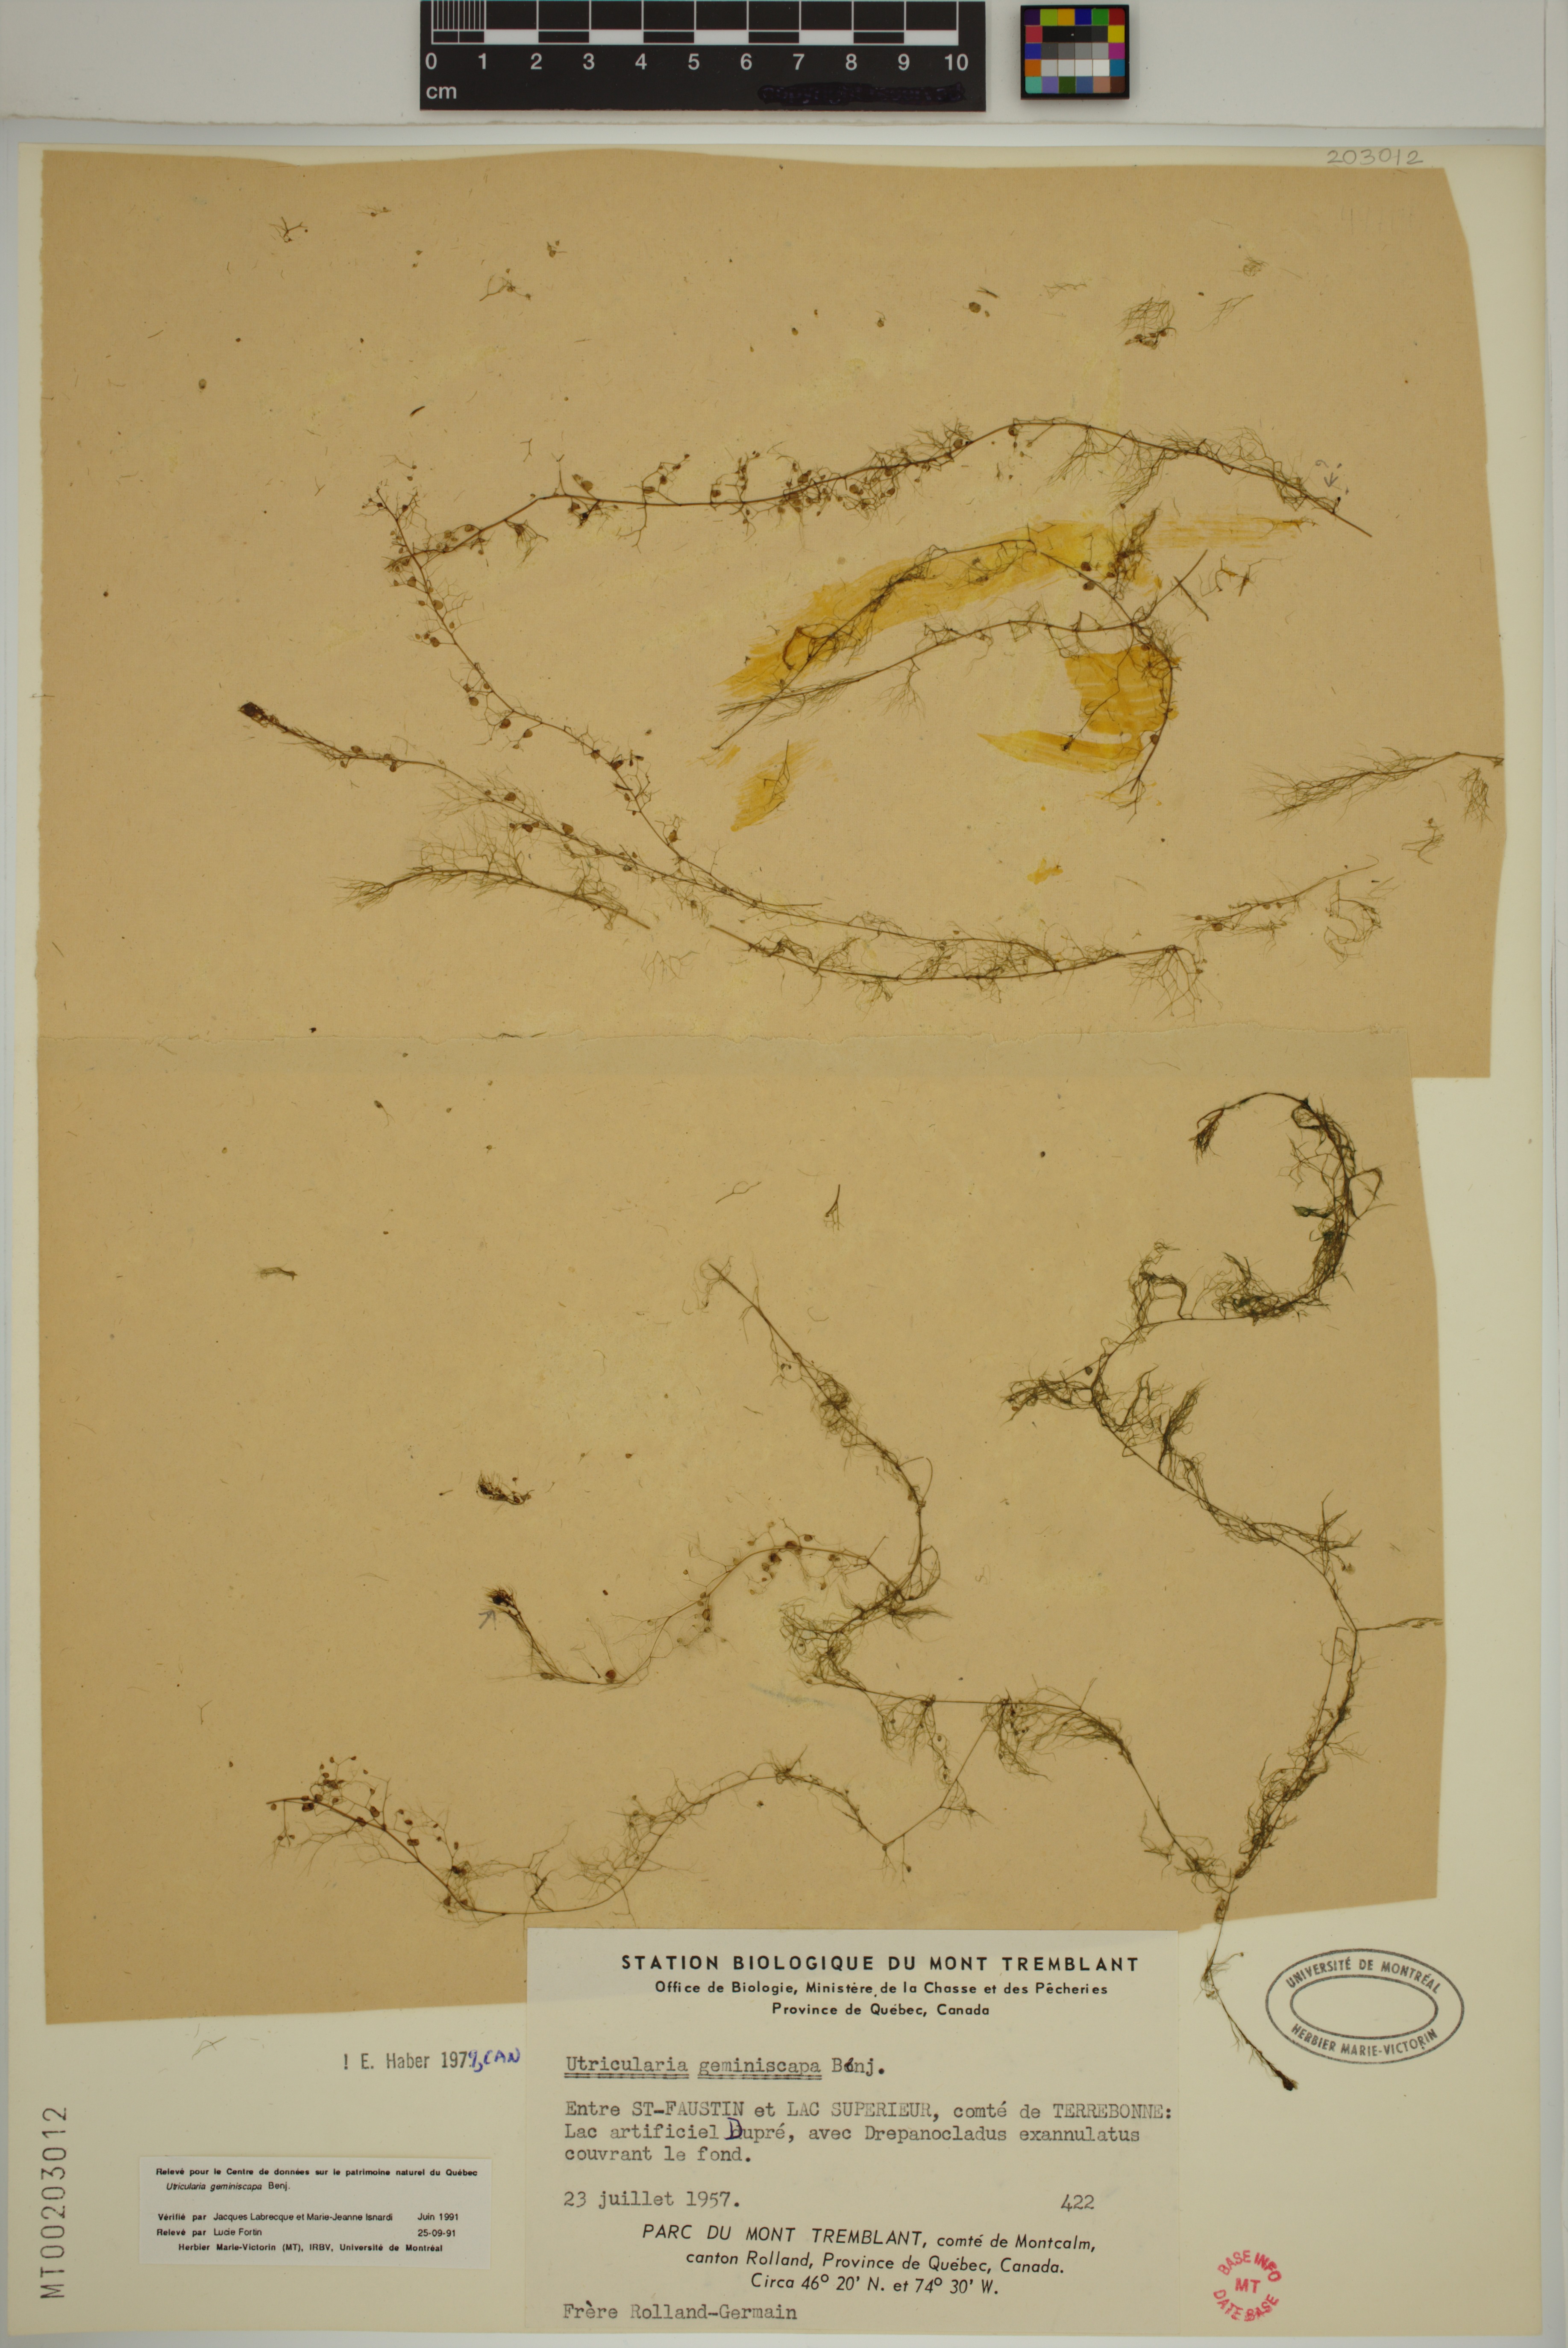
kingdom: Plantae
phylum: Tracheophyta
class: Magnoliopsida
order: Lamiales
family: Lentibulariaceae
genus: Utricularia
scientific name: Utricularia geminiscapa
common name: Hidden-fruit bladderwort
